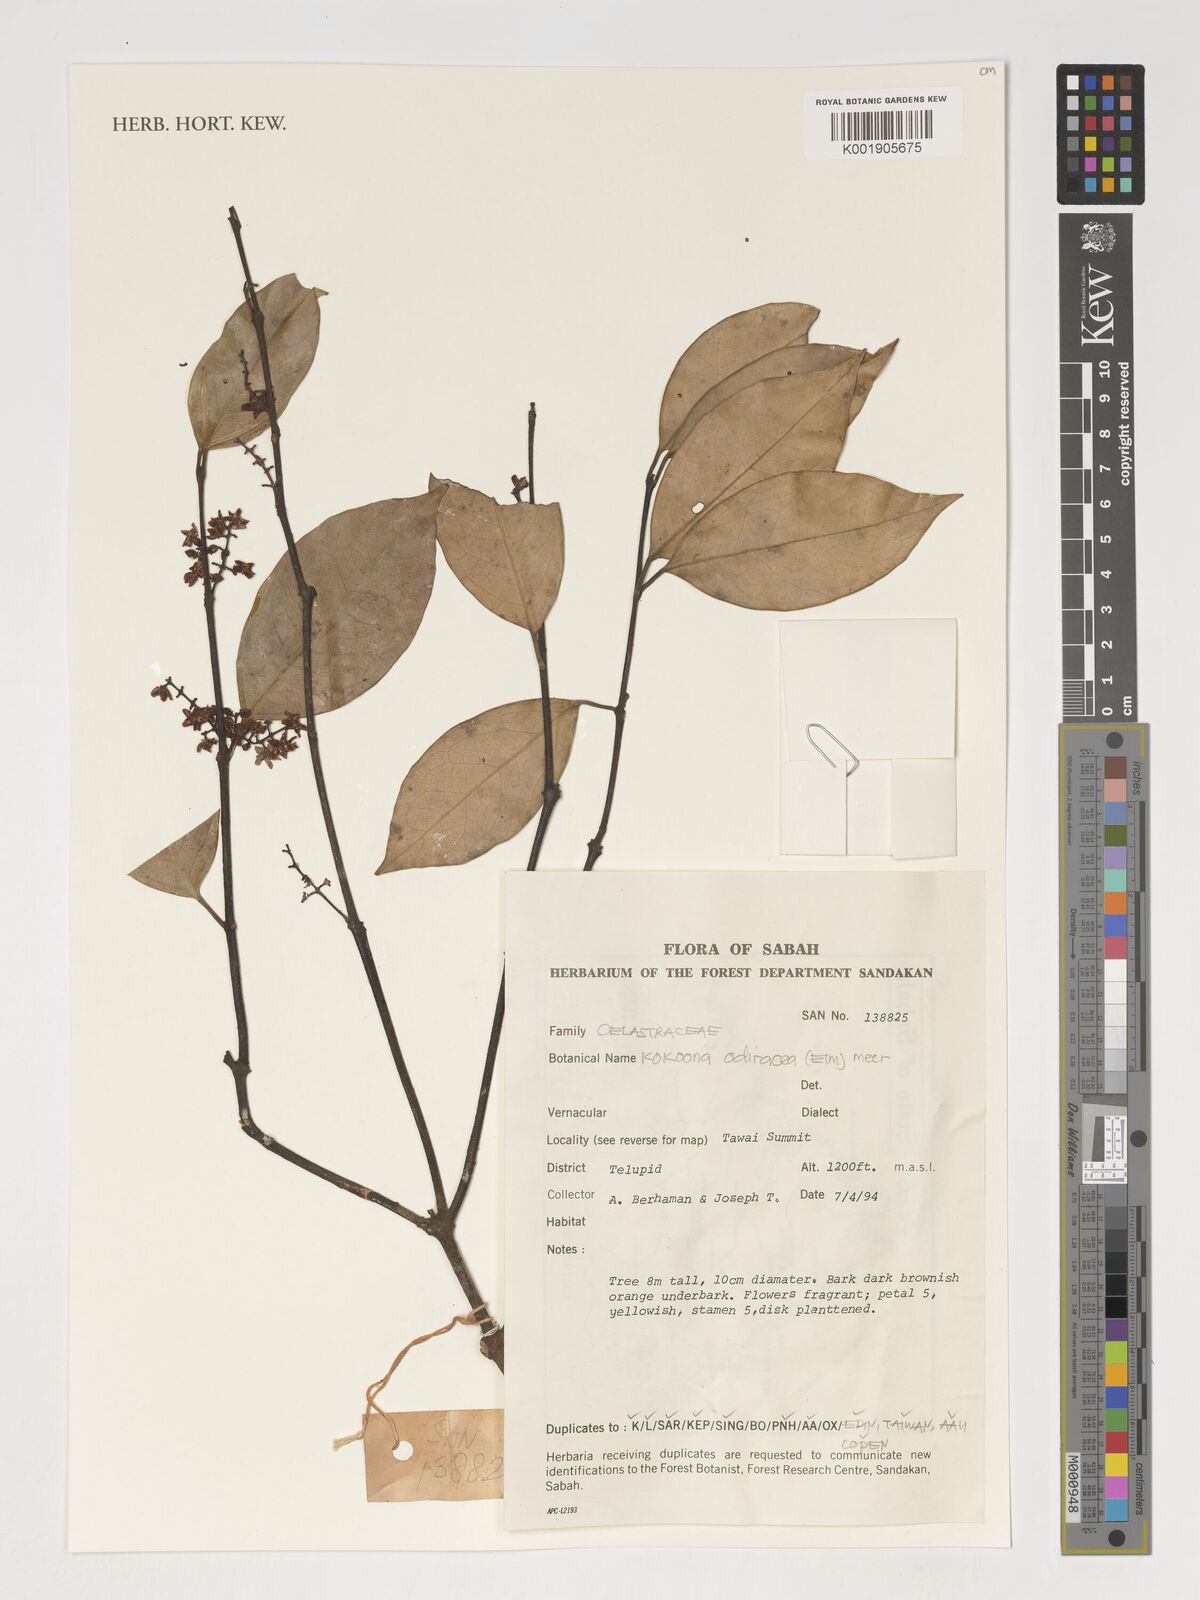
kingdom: Plantae
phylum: Tracheophyta
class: Magnoliopsida
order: Celastrales
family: Celastraceae
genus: Kokoona
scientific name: Kokoona ochracea
